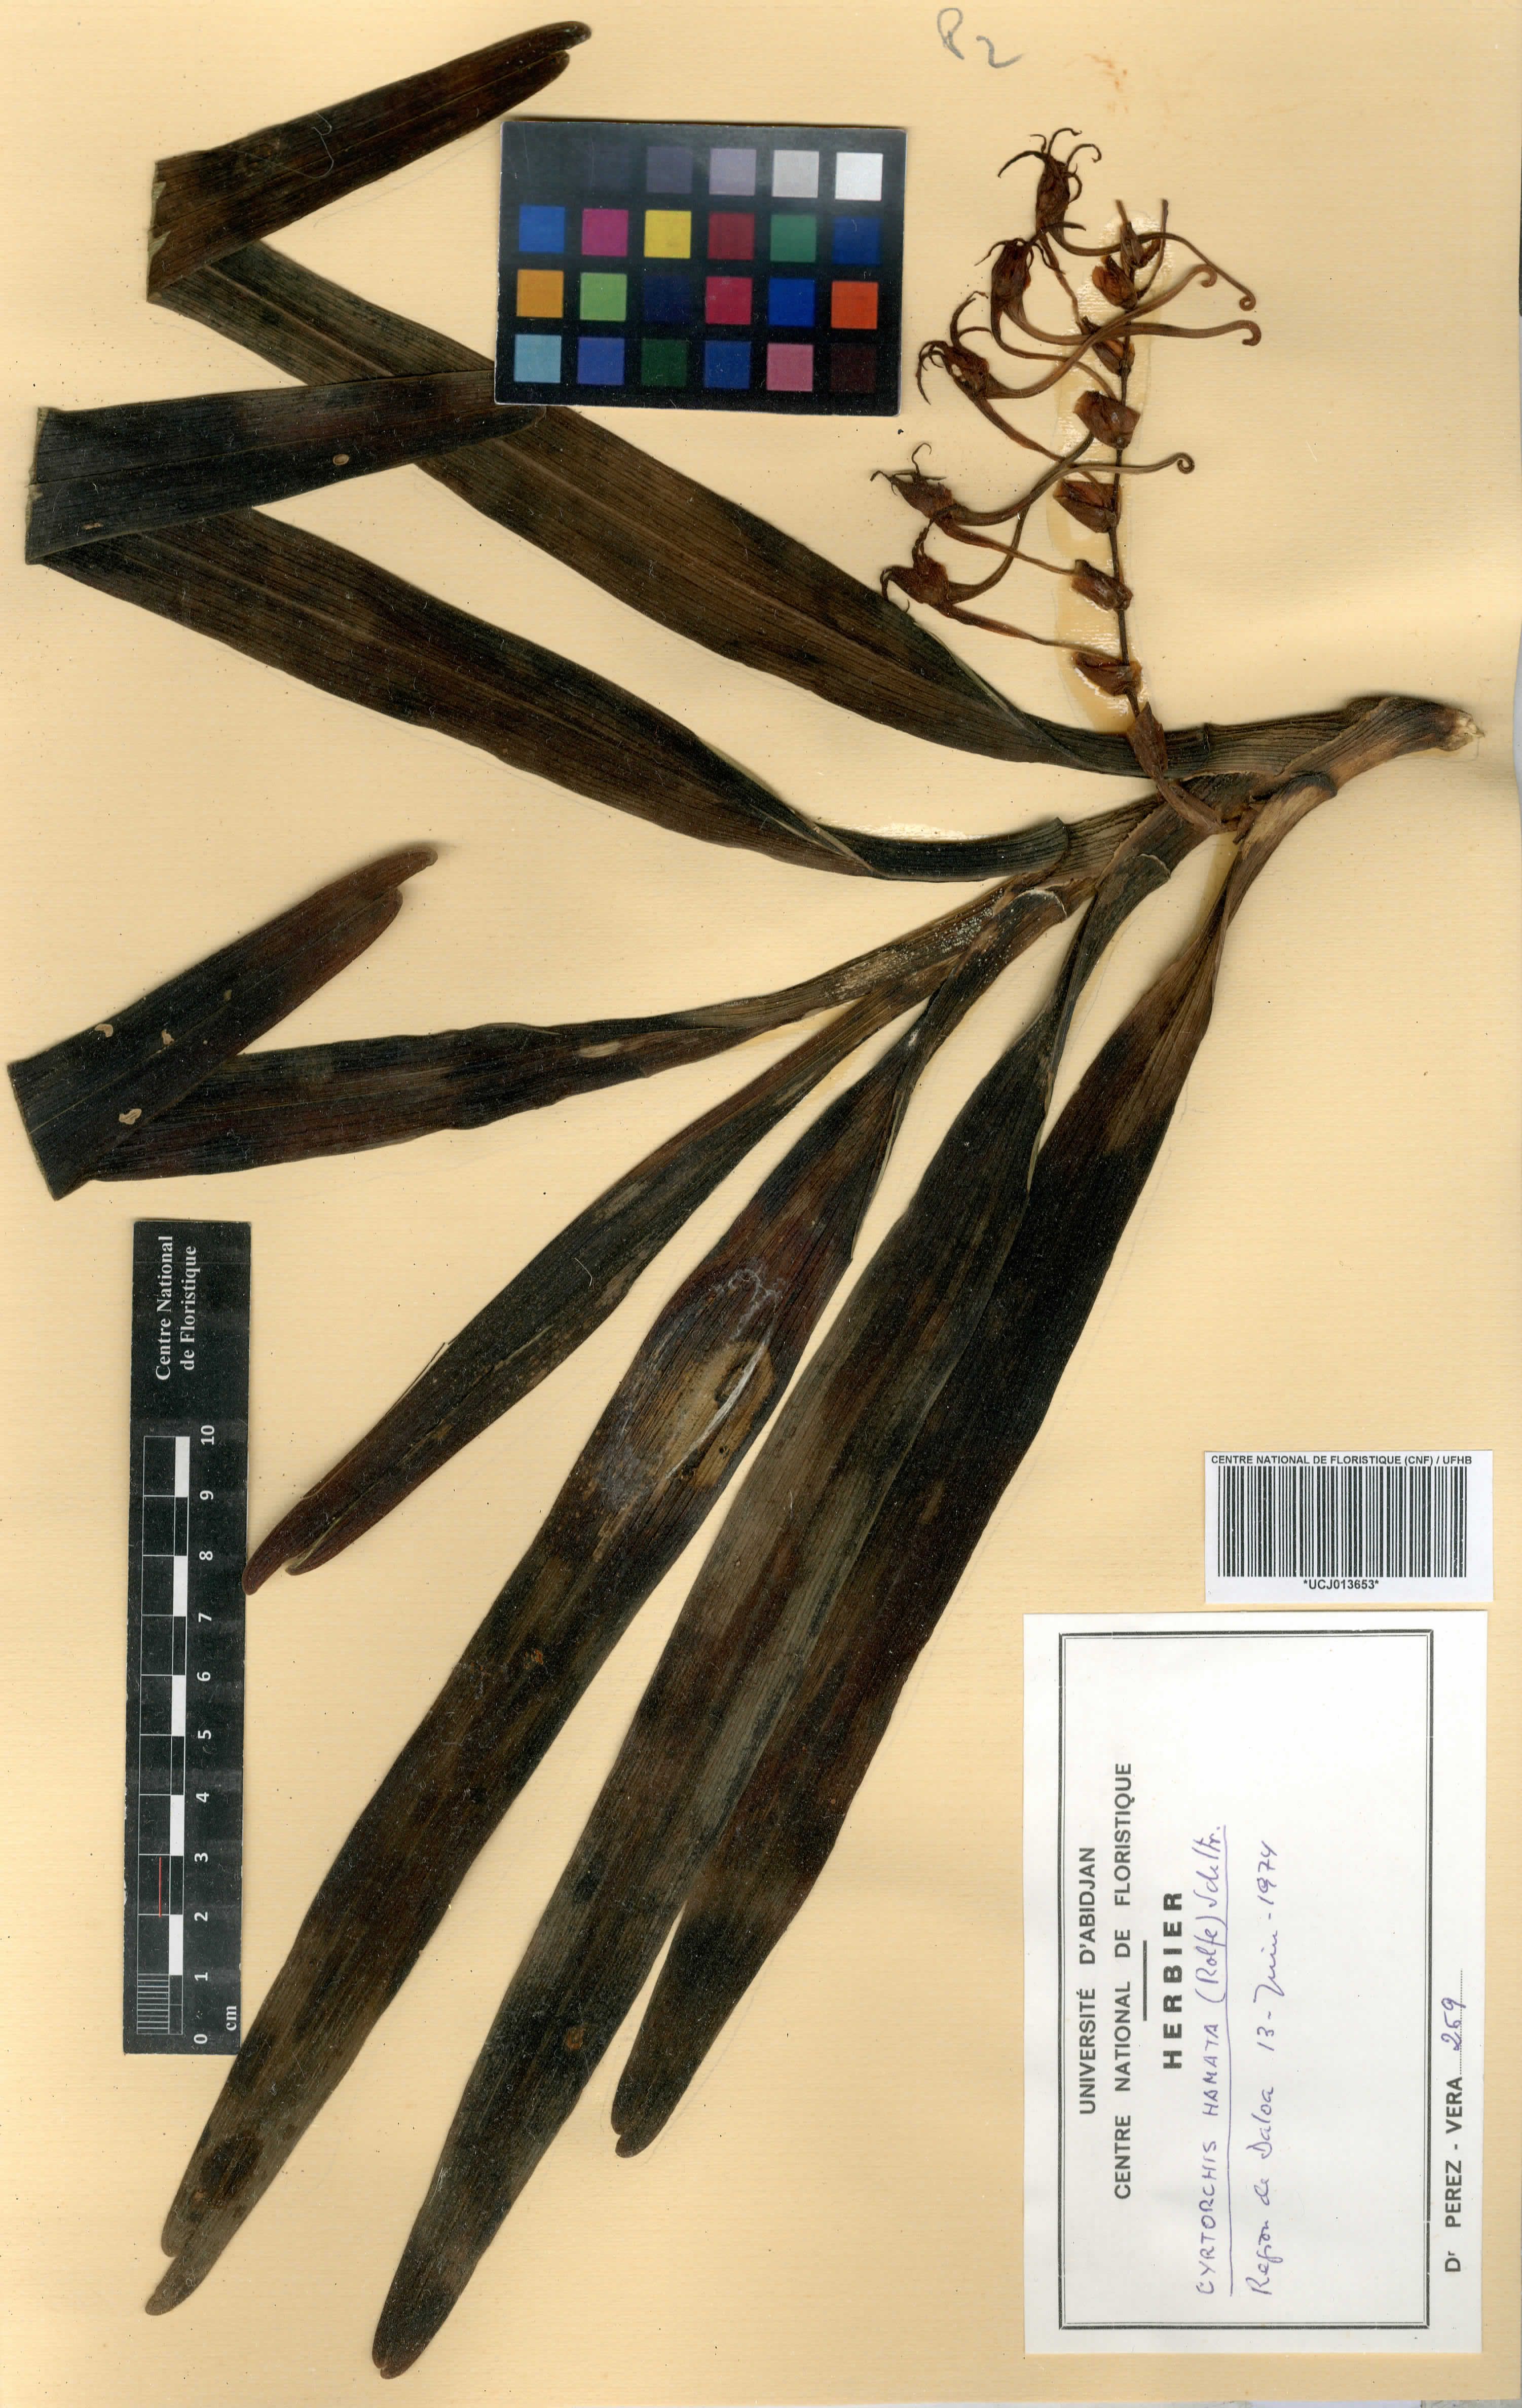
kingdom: Plantae
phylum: Tracheophyta
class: Liliopsida
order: Asparagales
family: Orchidaceae
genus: Cyrtorchis
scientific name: Cyrtorchis hamata
